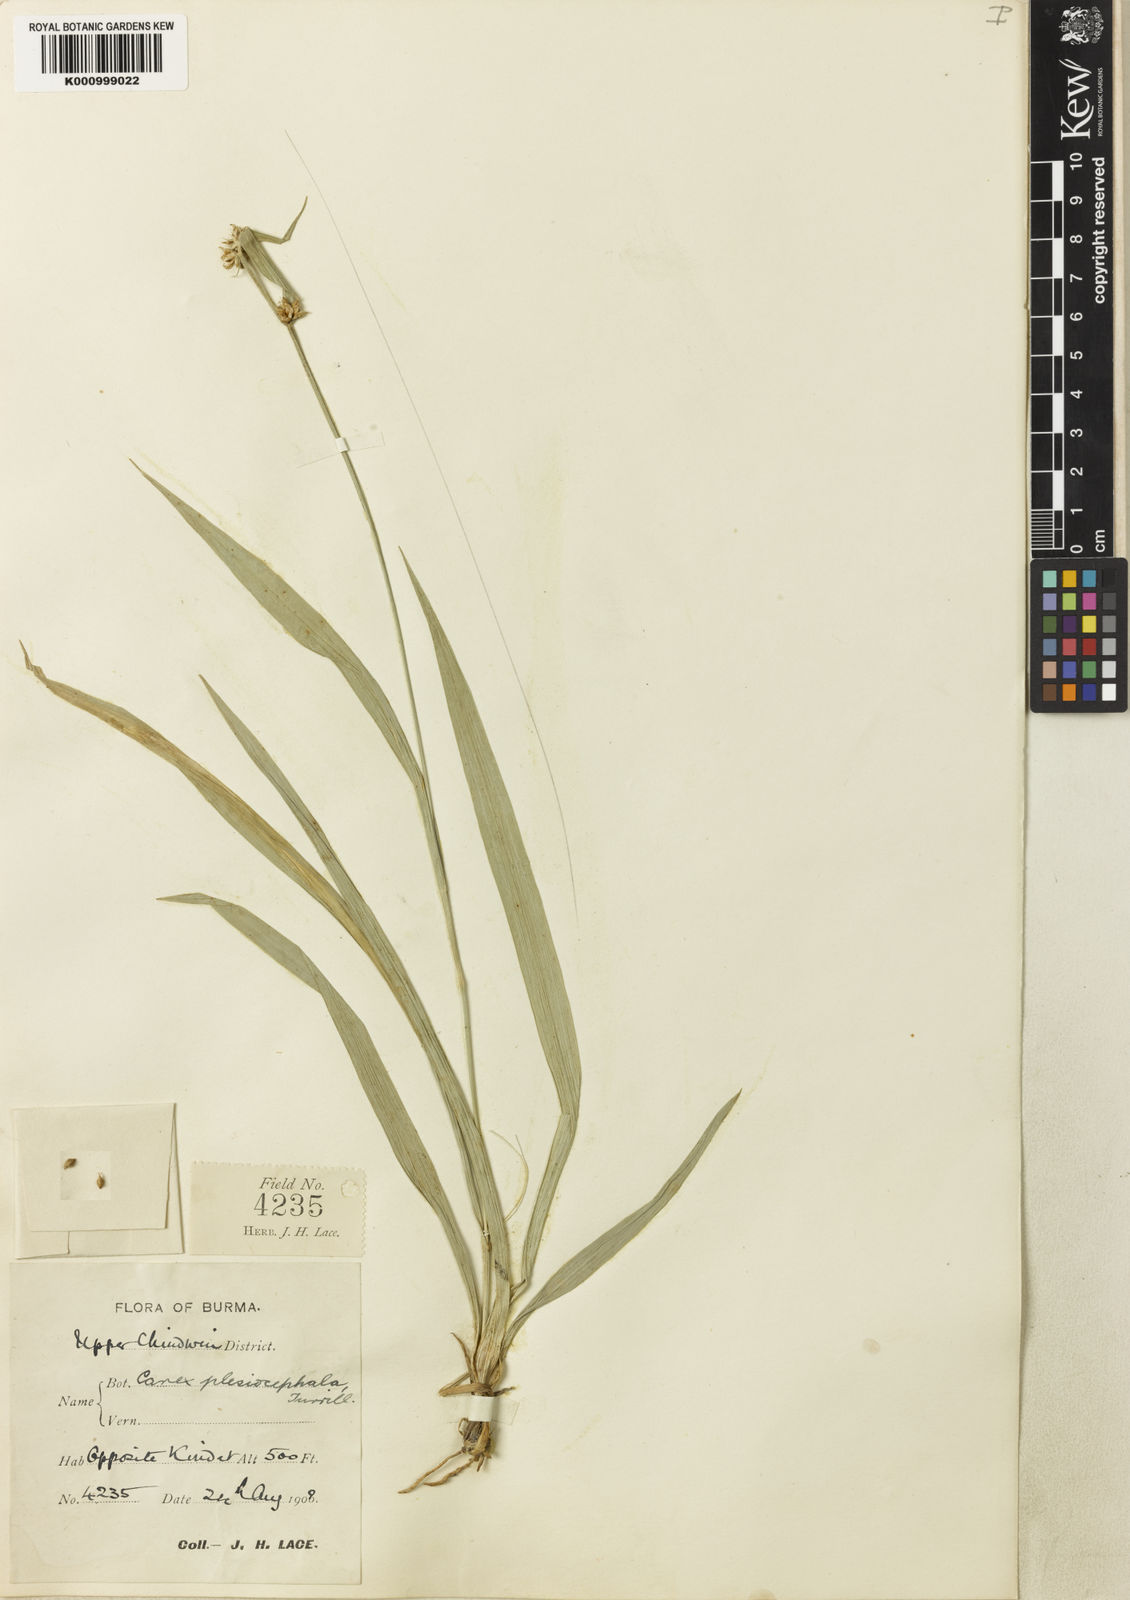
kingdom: Plantae
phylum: Tracheophyta
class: Liliopsida
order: Poales
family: Cyperaceae
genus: Carex
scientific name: Carex tricephala
